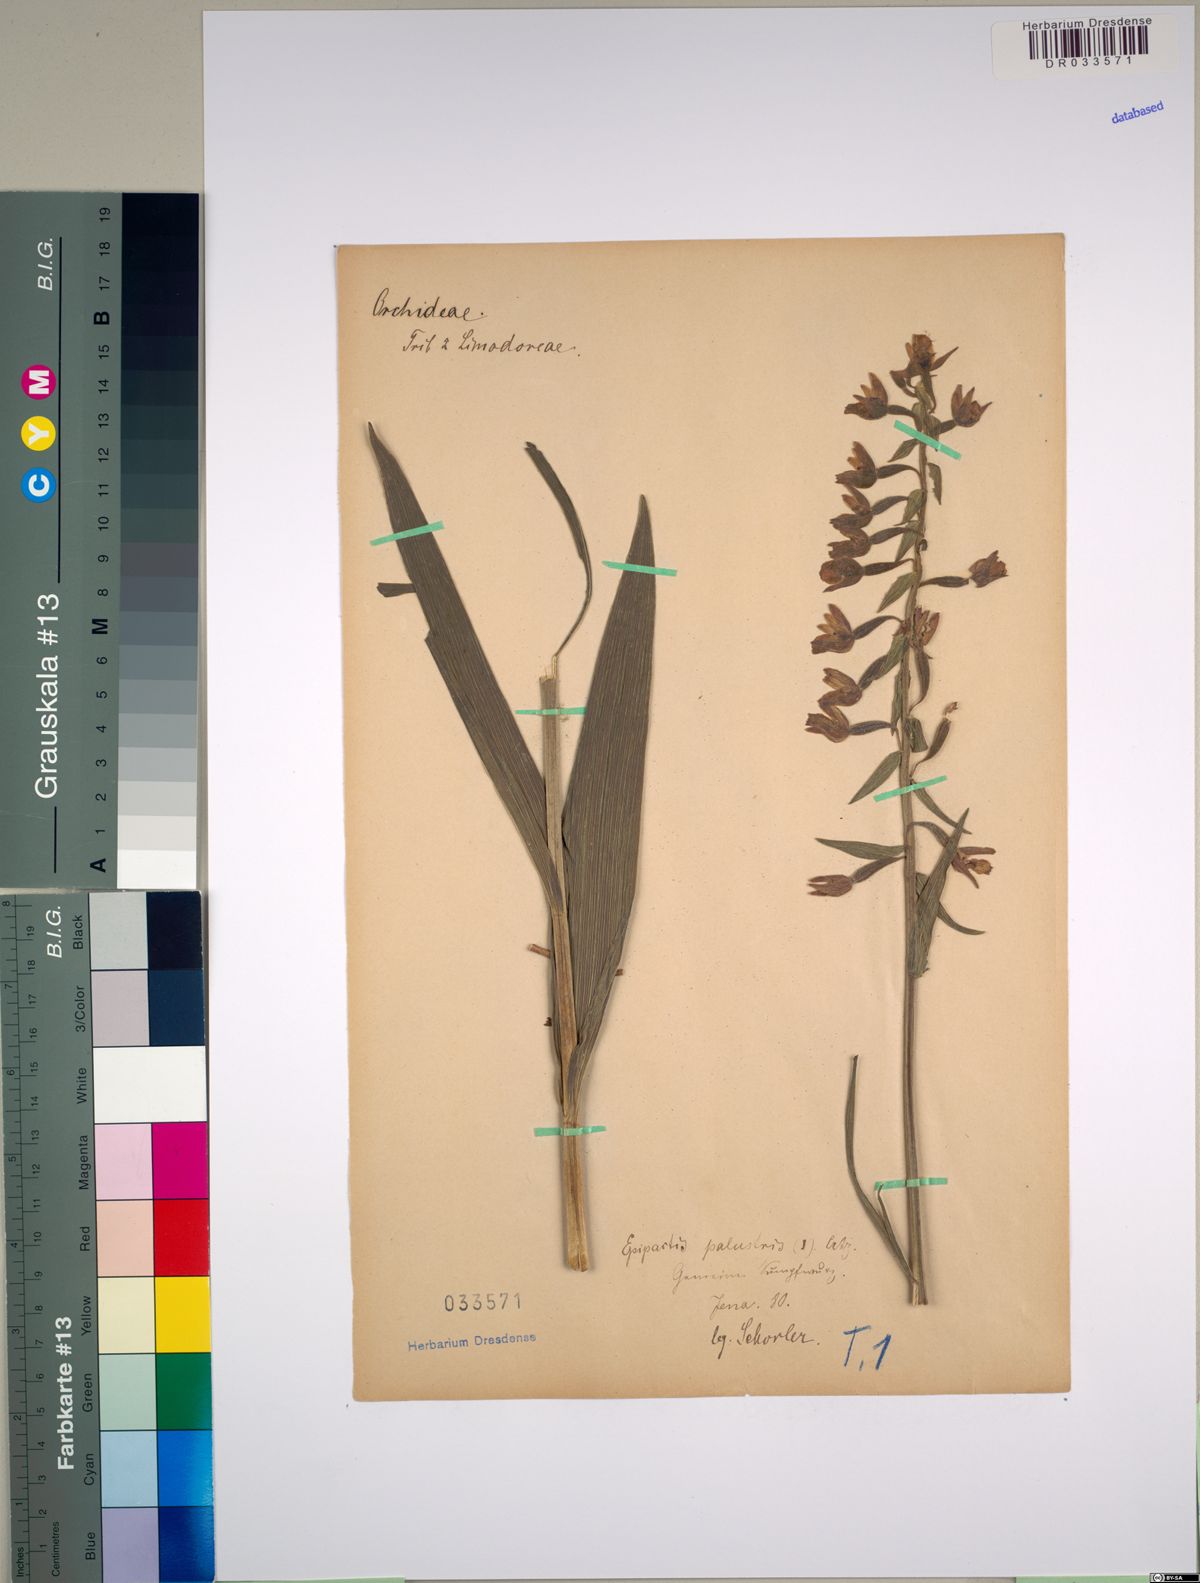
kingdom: Plantae
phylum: Tracheophyta
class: Liliopsida
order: Asparagales
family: Orchidaceae
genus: Epipactis
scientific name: Epipactis palustris
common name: Marsh helleborine
